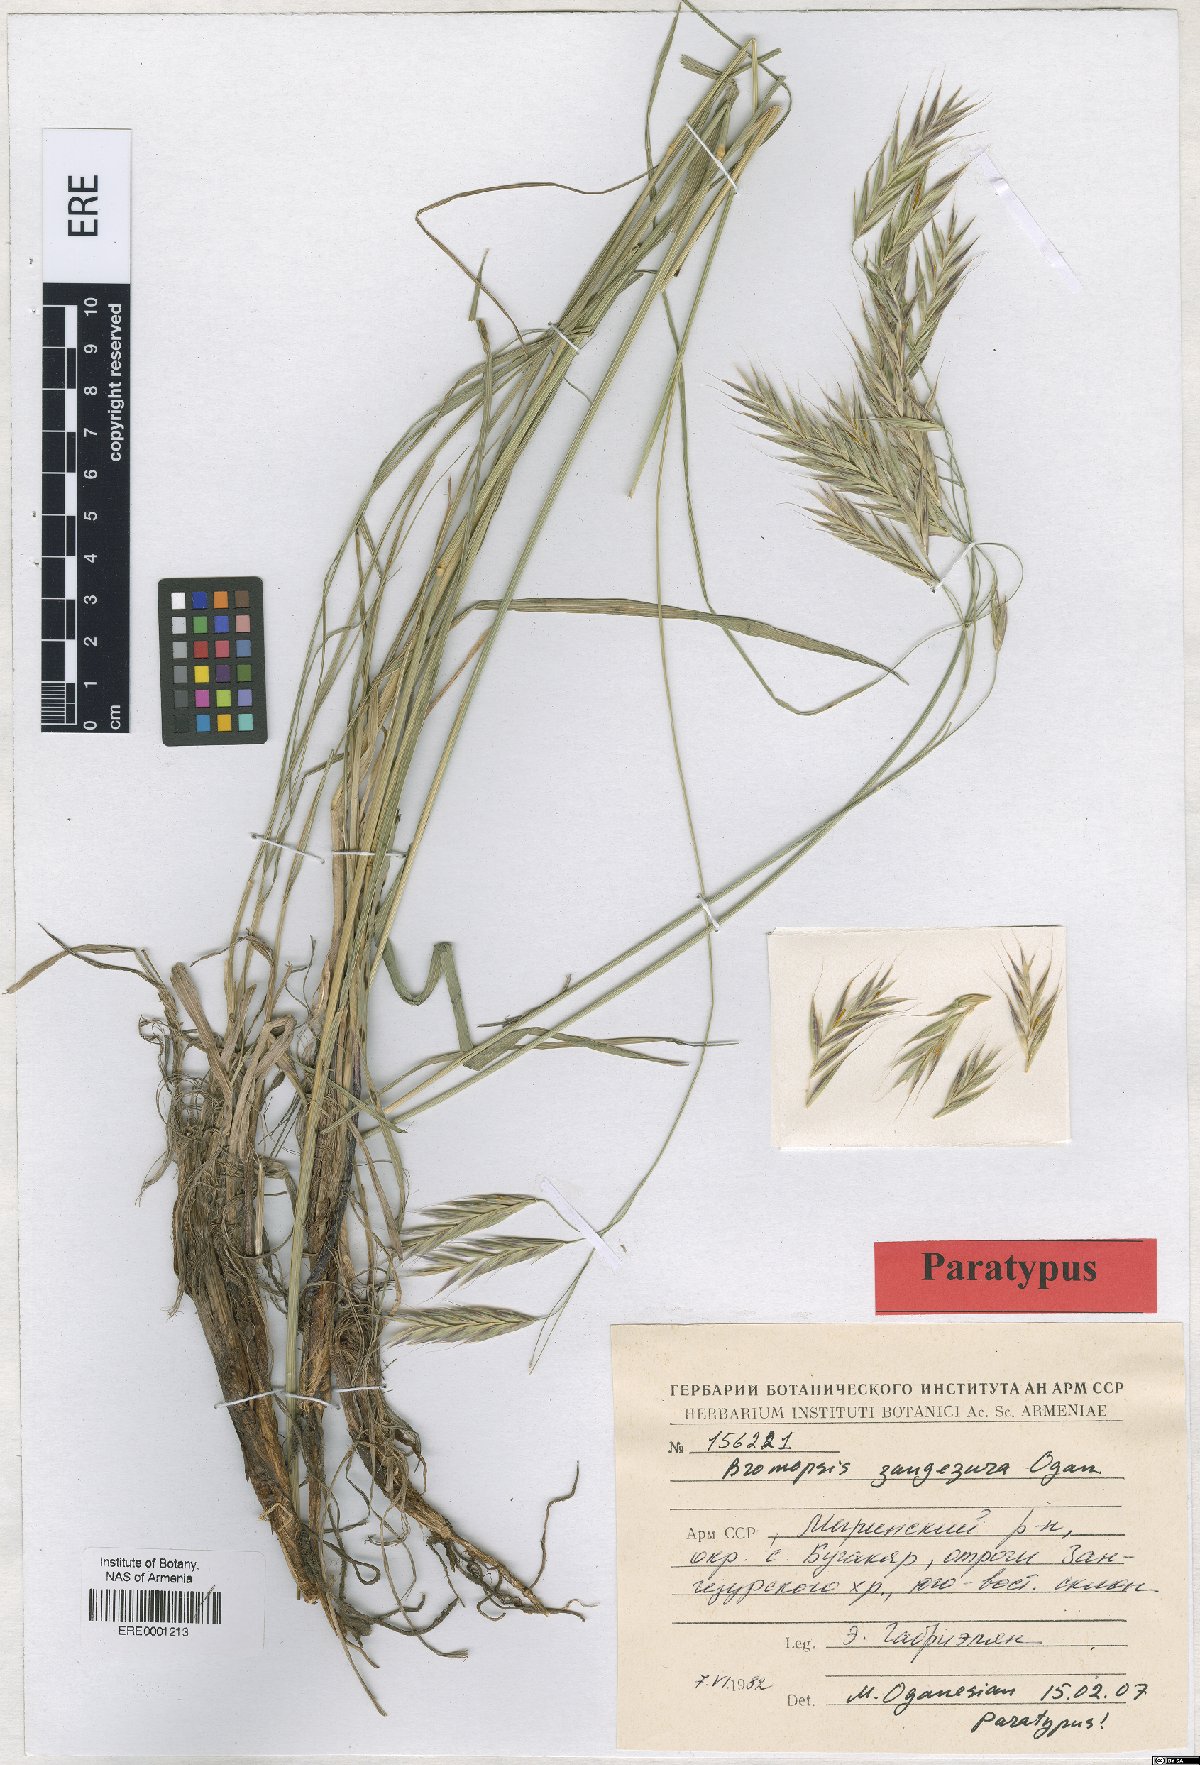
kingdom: Plantae
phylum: Tracheophyta
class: Liliopsida
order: Poales
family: Poaceae
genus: Bromus
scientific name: Bromus erectus
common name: Erect brome
